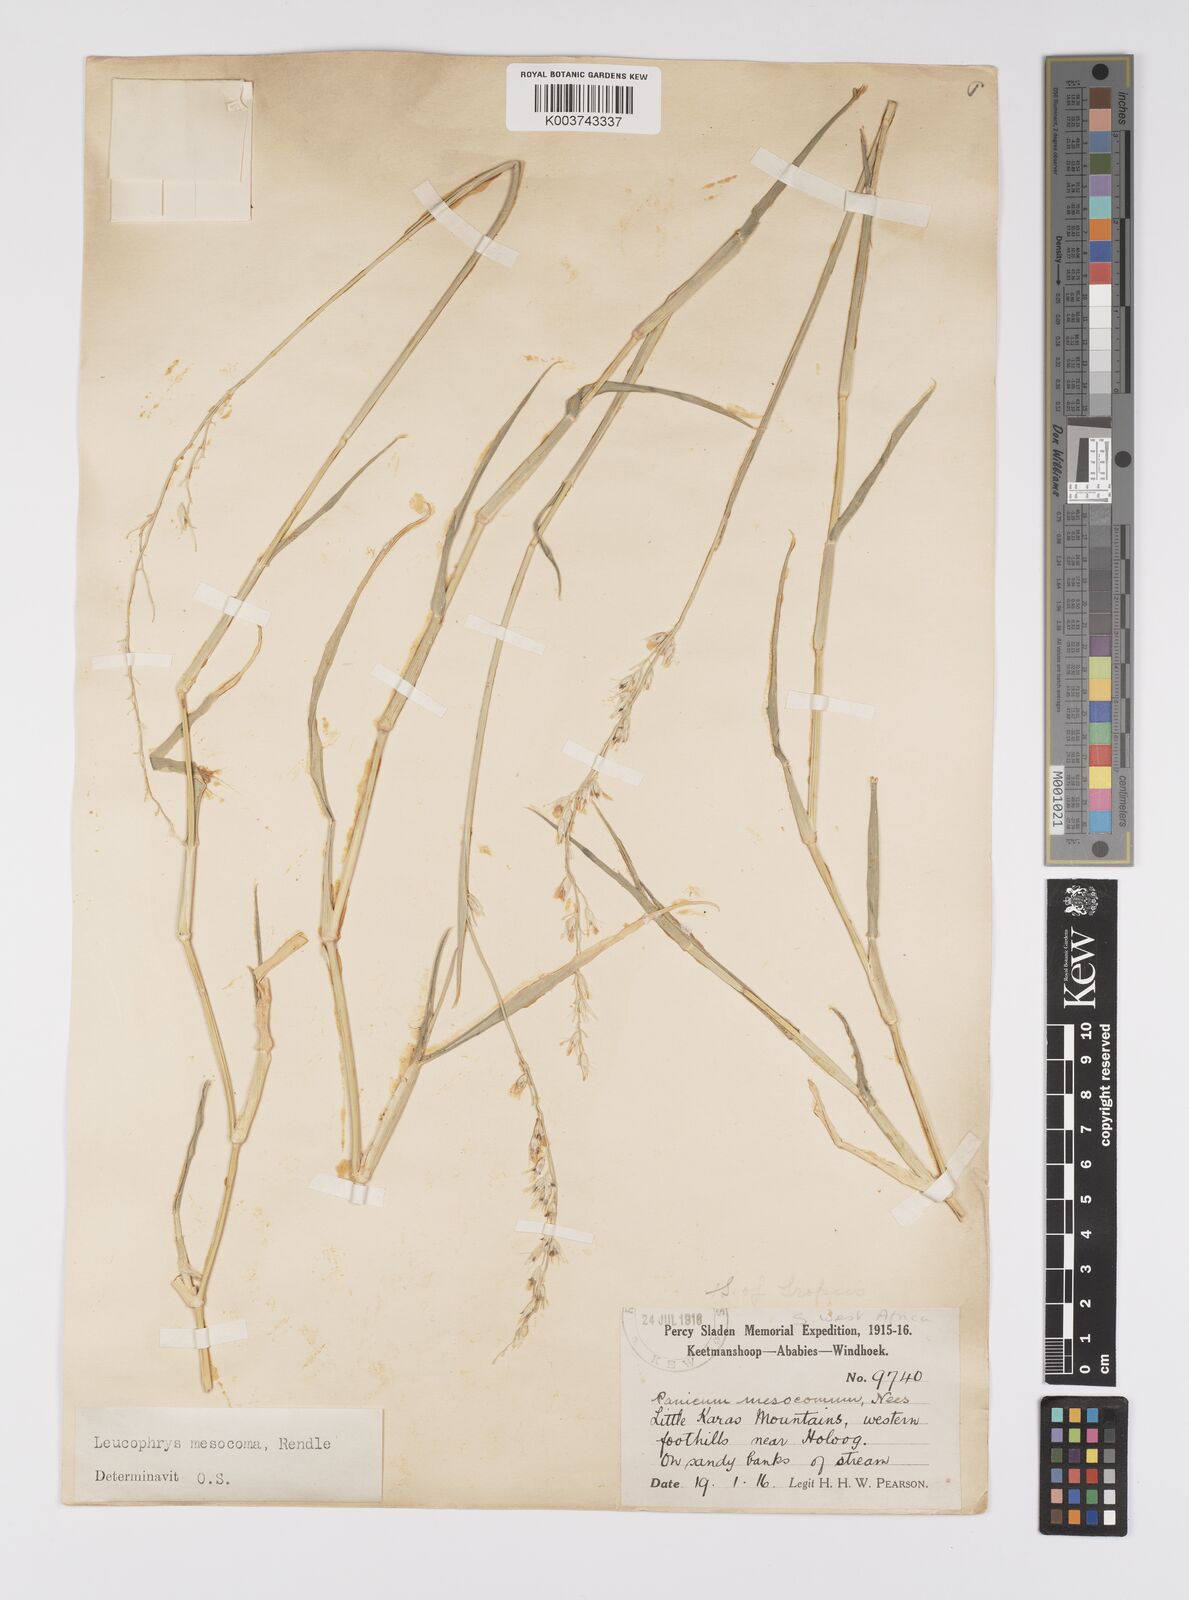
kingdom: Plantae
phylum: Tracheophyta
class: Liliopsida
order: Poales
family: Poaceae
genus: Urochloa
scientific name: Urochloa Brachiaria mesocoma
